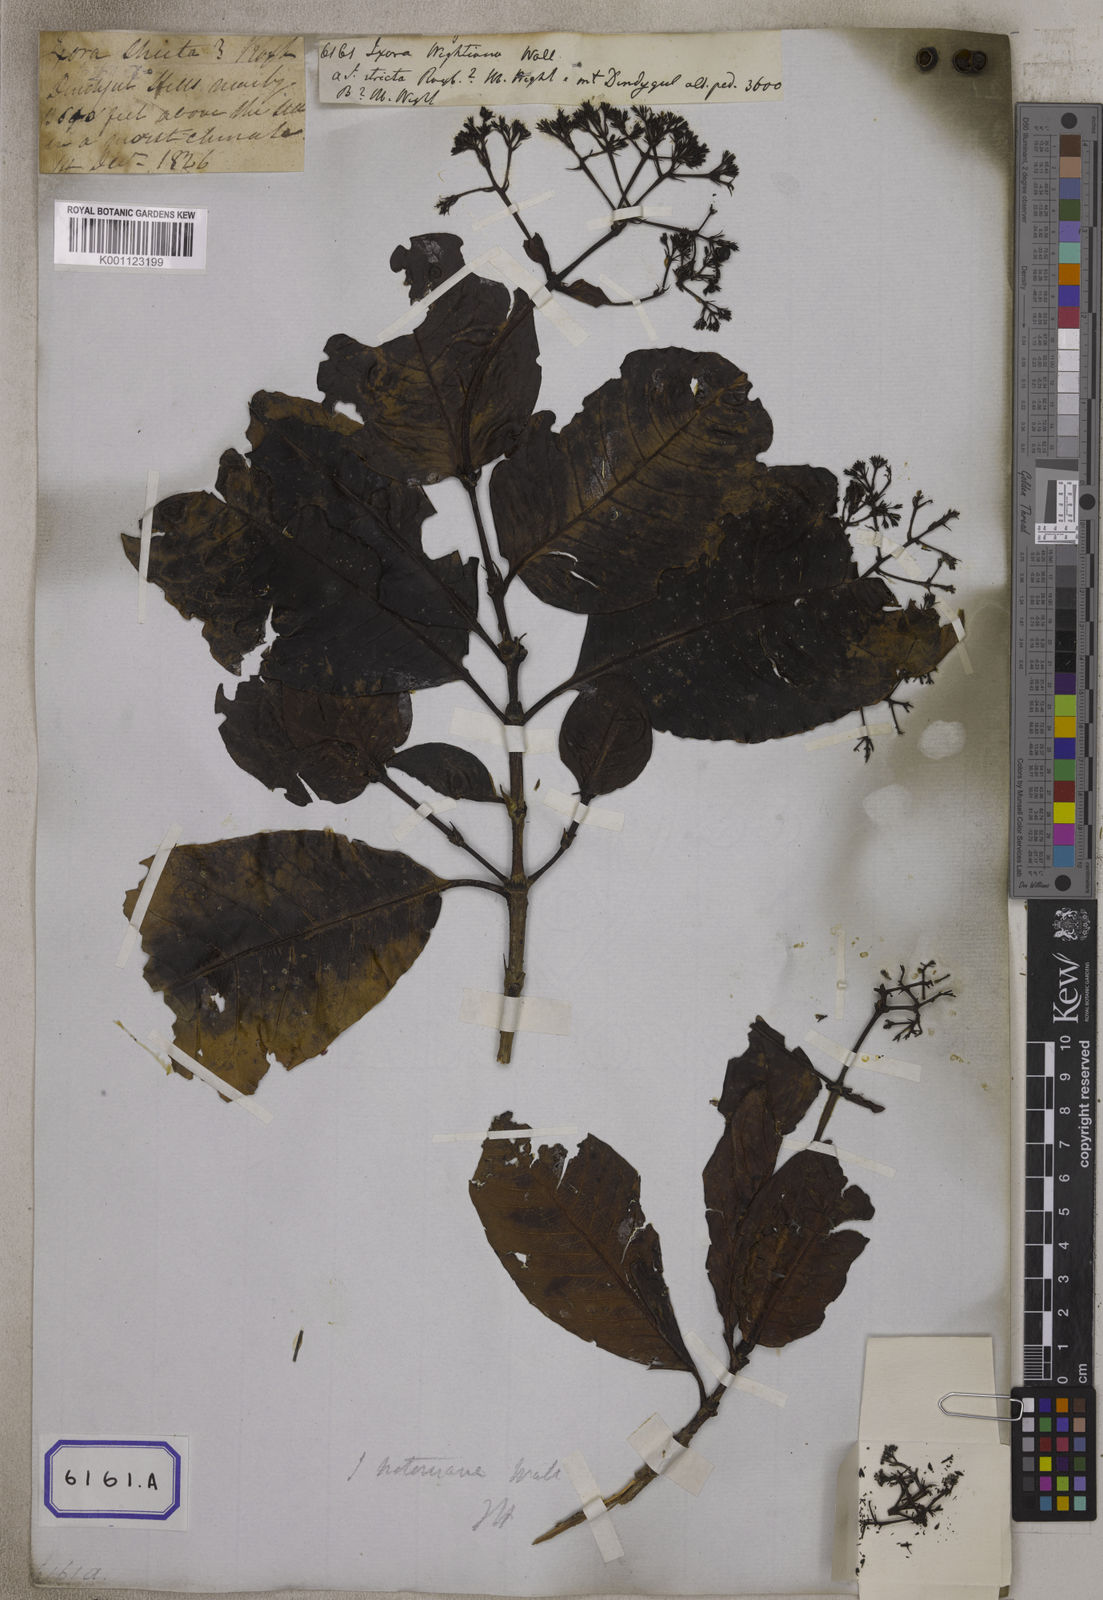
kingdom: Plantae
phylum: Tracheophyta
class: Magnoliopsida
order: Gentianales
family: Rubiaceae
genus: Ixora
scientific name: Ixora notoniana
